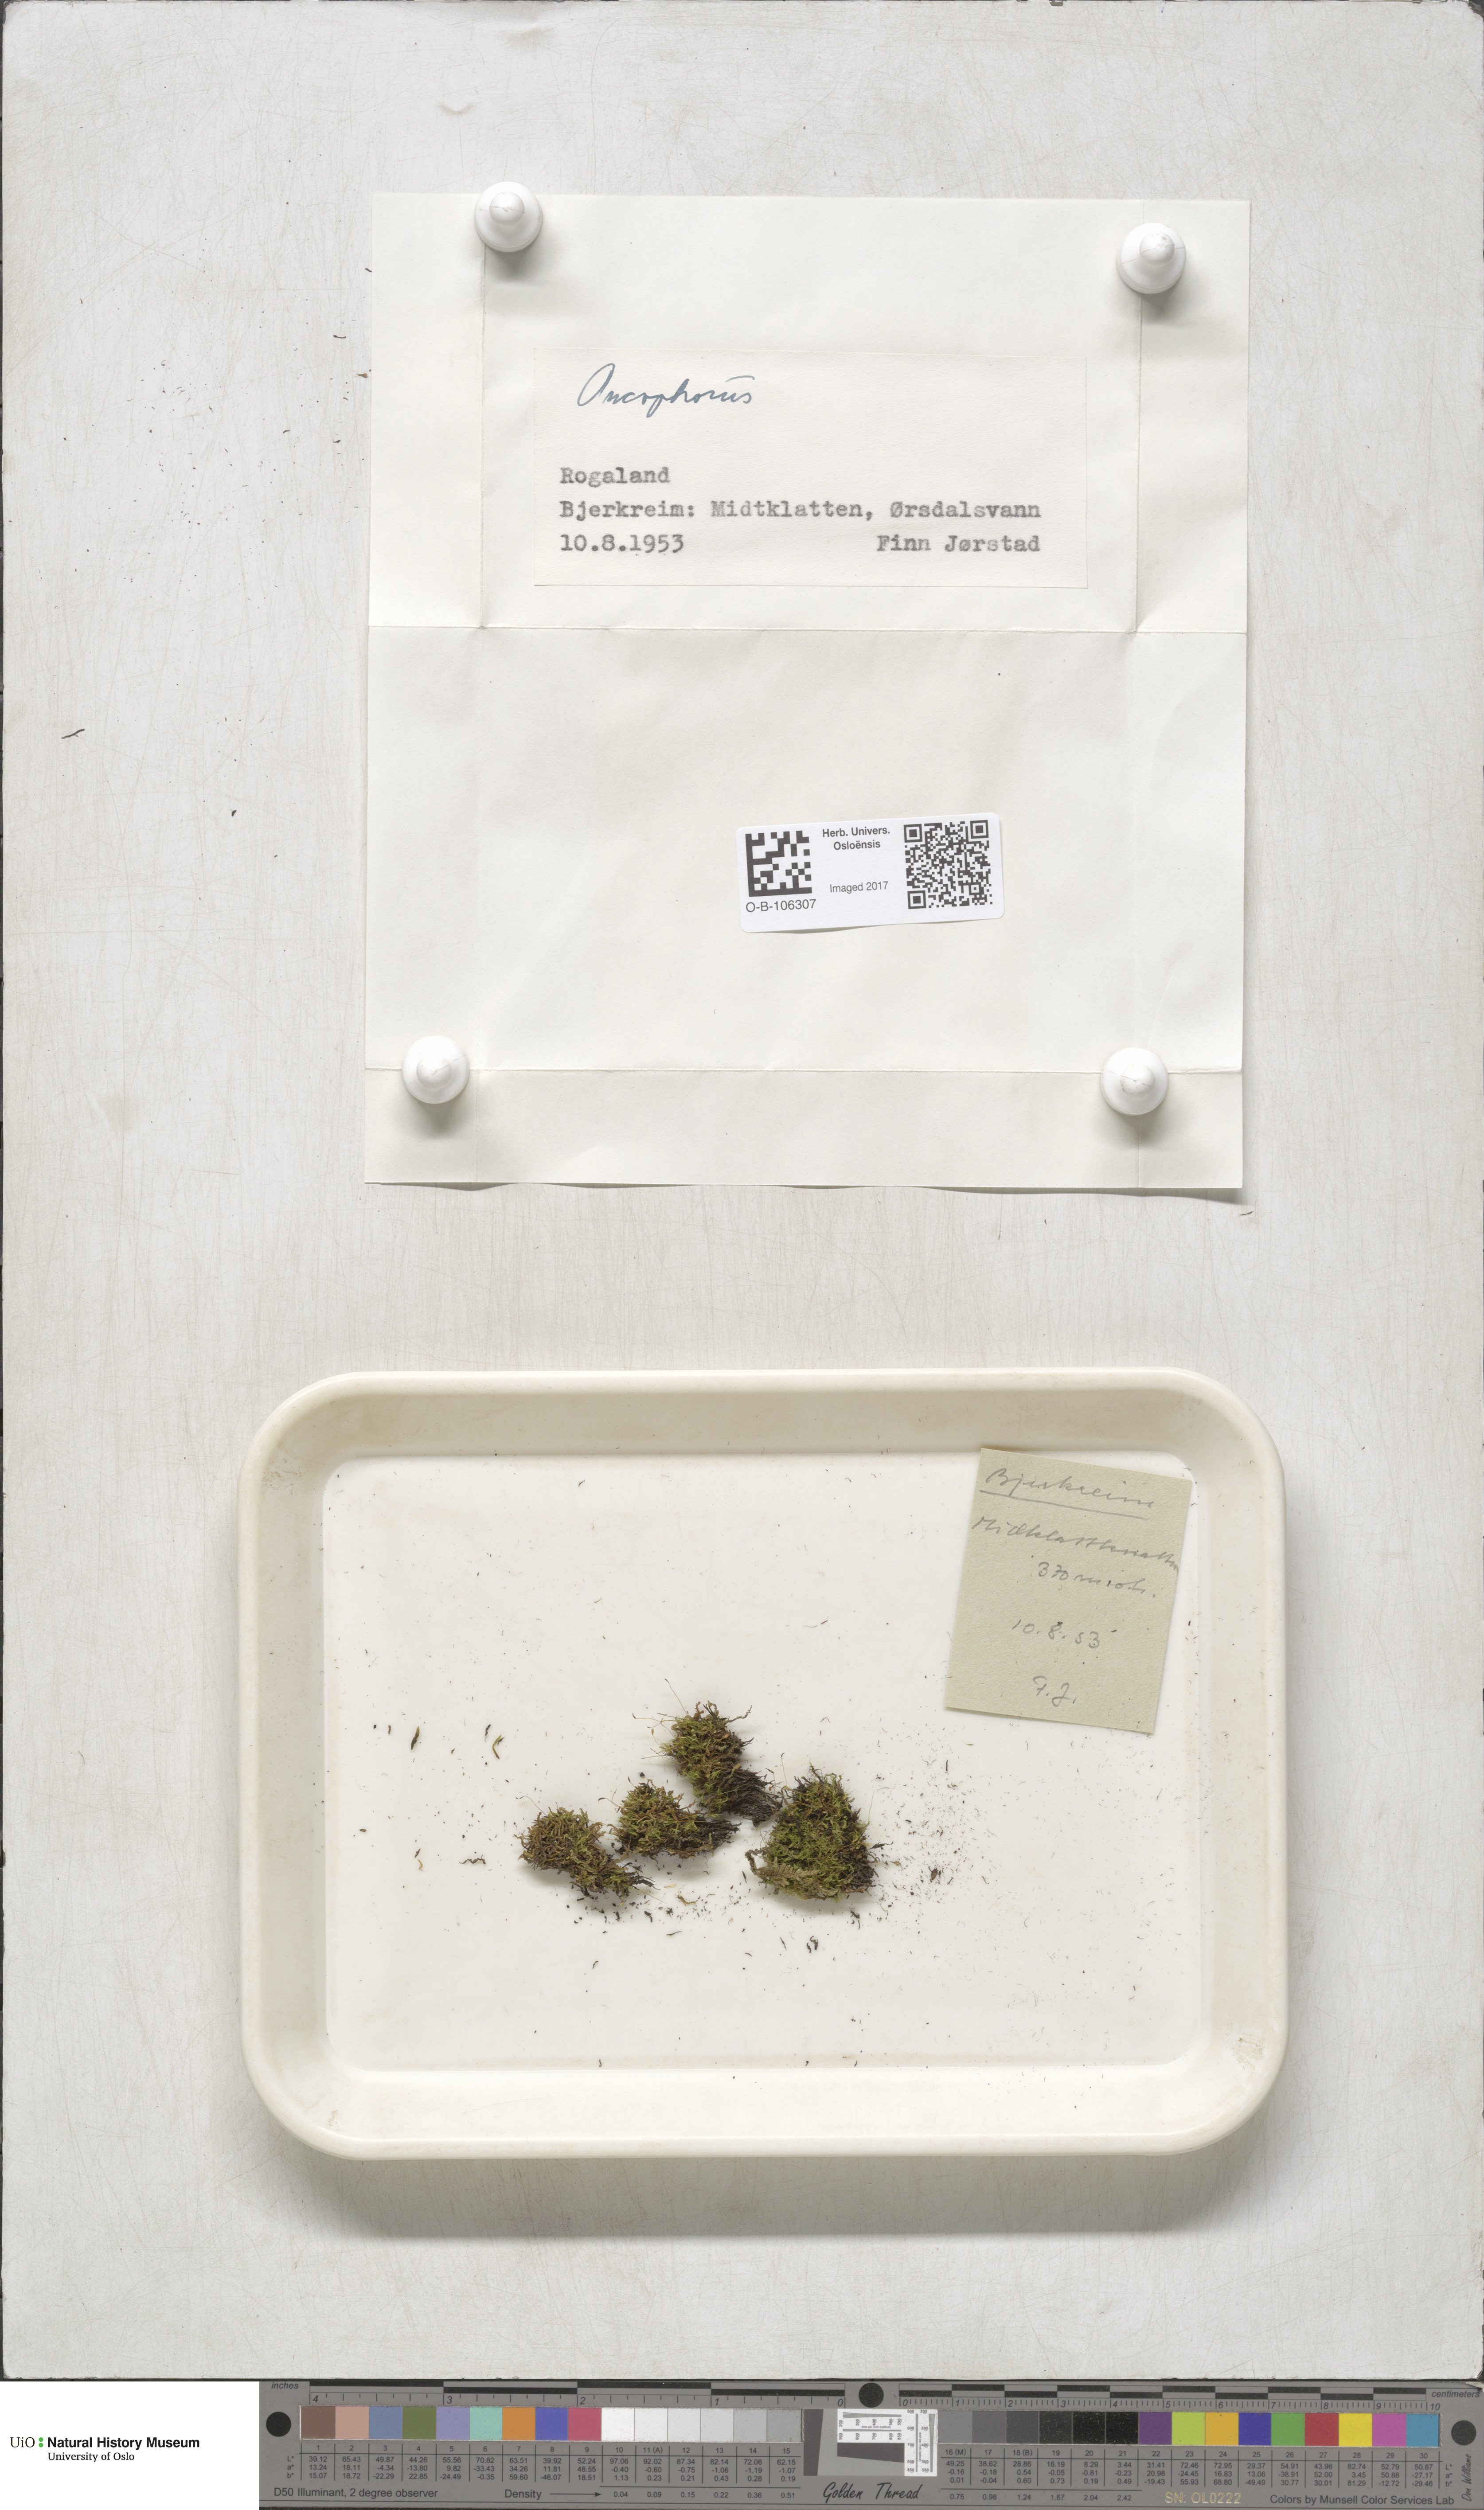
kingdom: Plantae
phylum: Bryophyta
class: Bryopsida
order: Dicranales
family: Rhabdoweisiaceae
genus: Oncophorus
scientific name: Oncophorus
